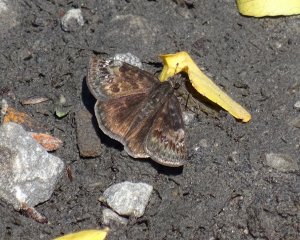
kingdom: Animalia
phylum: Arthropoda
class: Insecta
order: Lepidoptera
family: Hesperiidae
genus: Gesta
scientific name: Gesta
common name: Wild Indigo Duskywing
